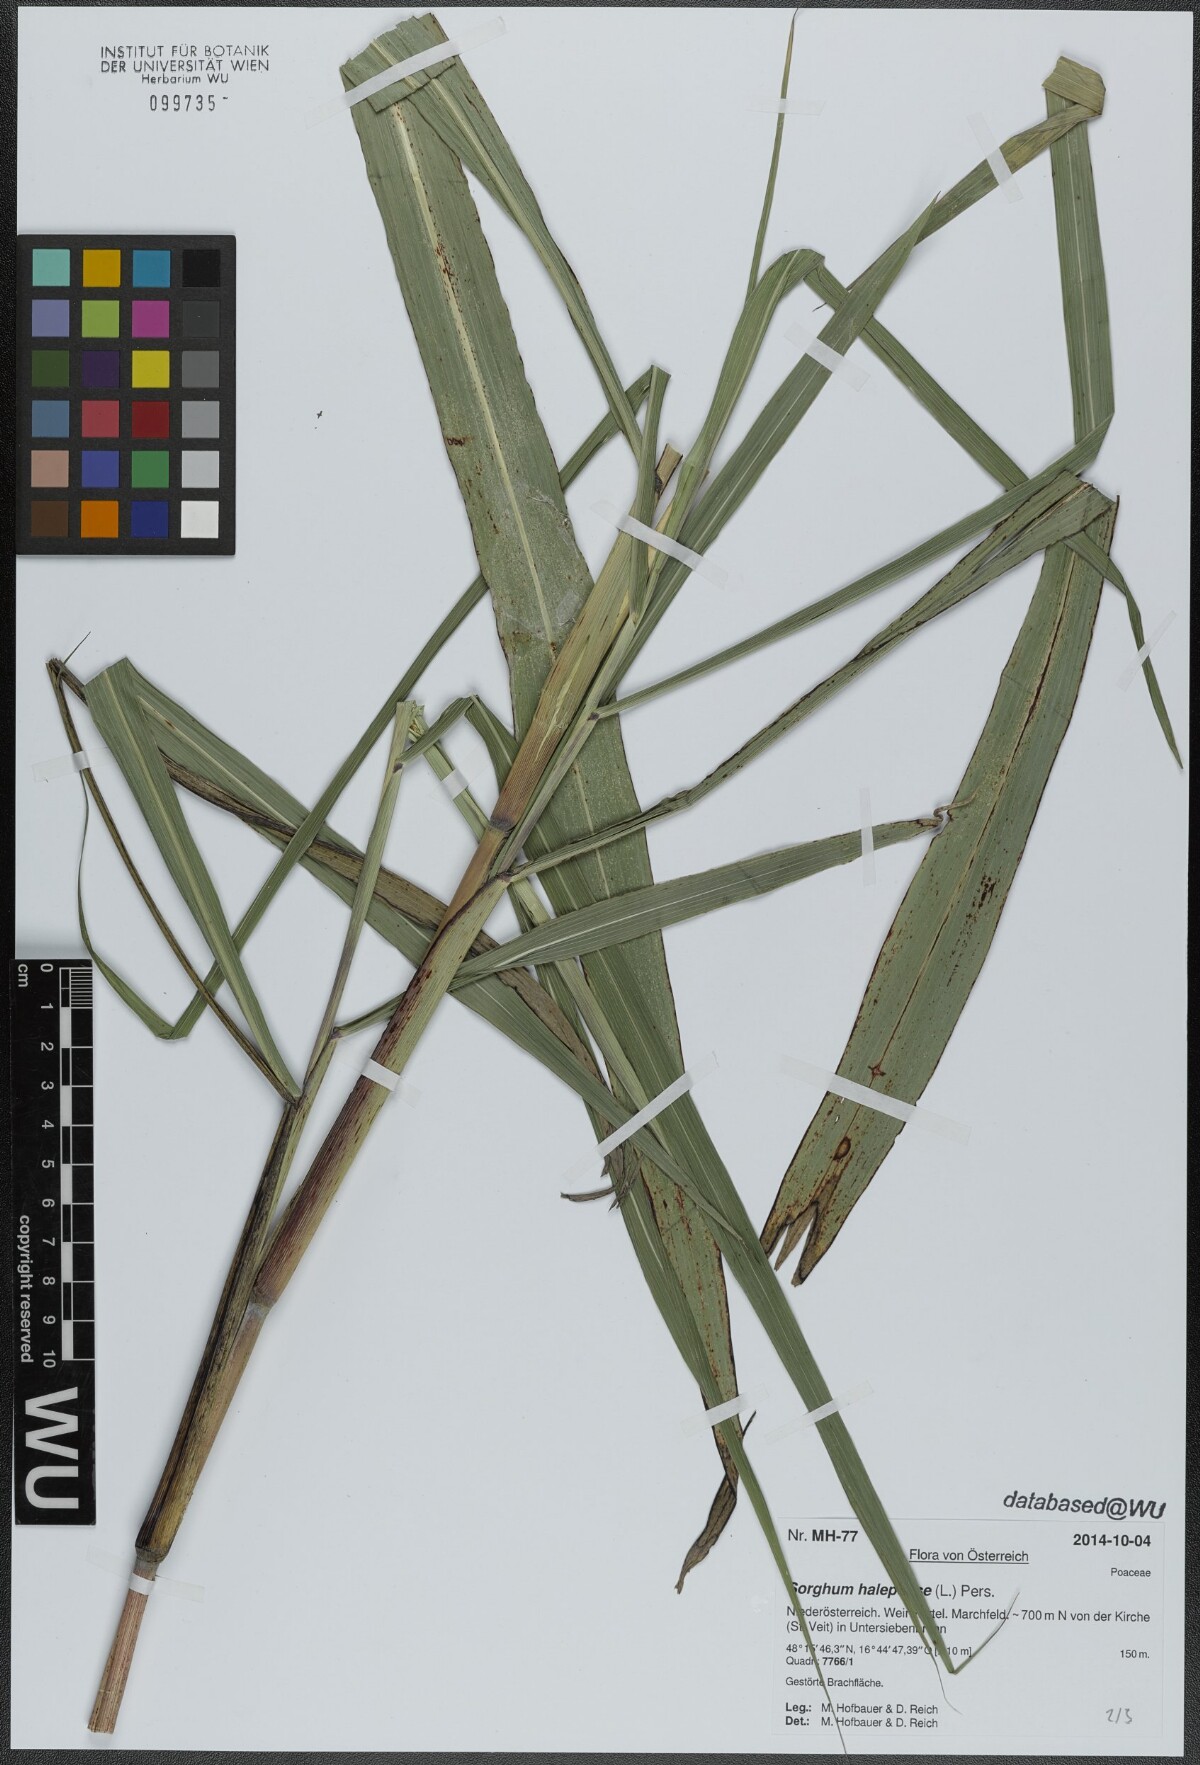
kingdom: Plantae
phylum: Tracheophyta
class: Liliopsida
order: Poales
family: Poaceae
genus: Sorghum
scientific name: Sorghum halepense
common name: Johnson-grass
